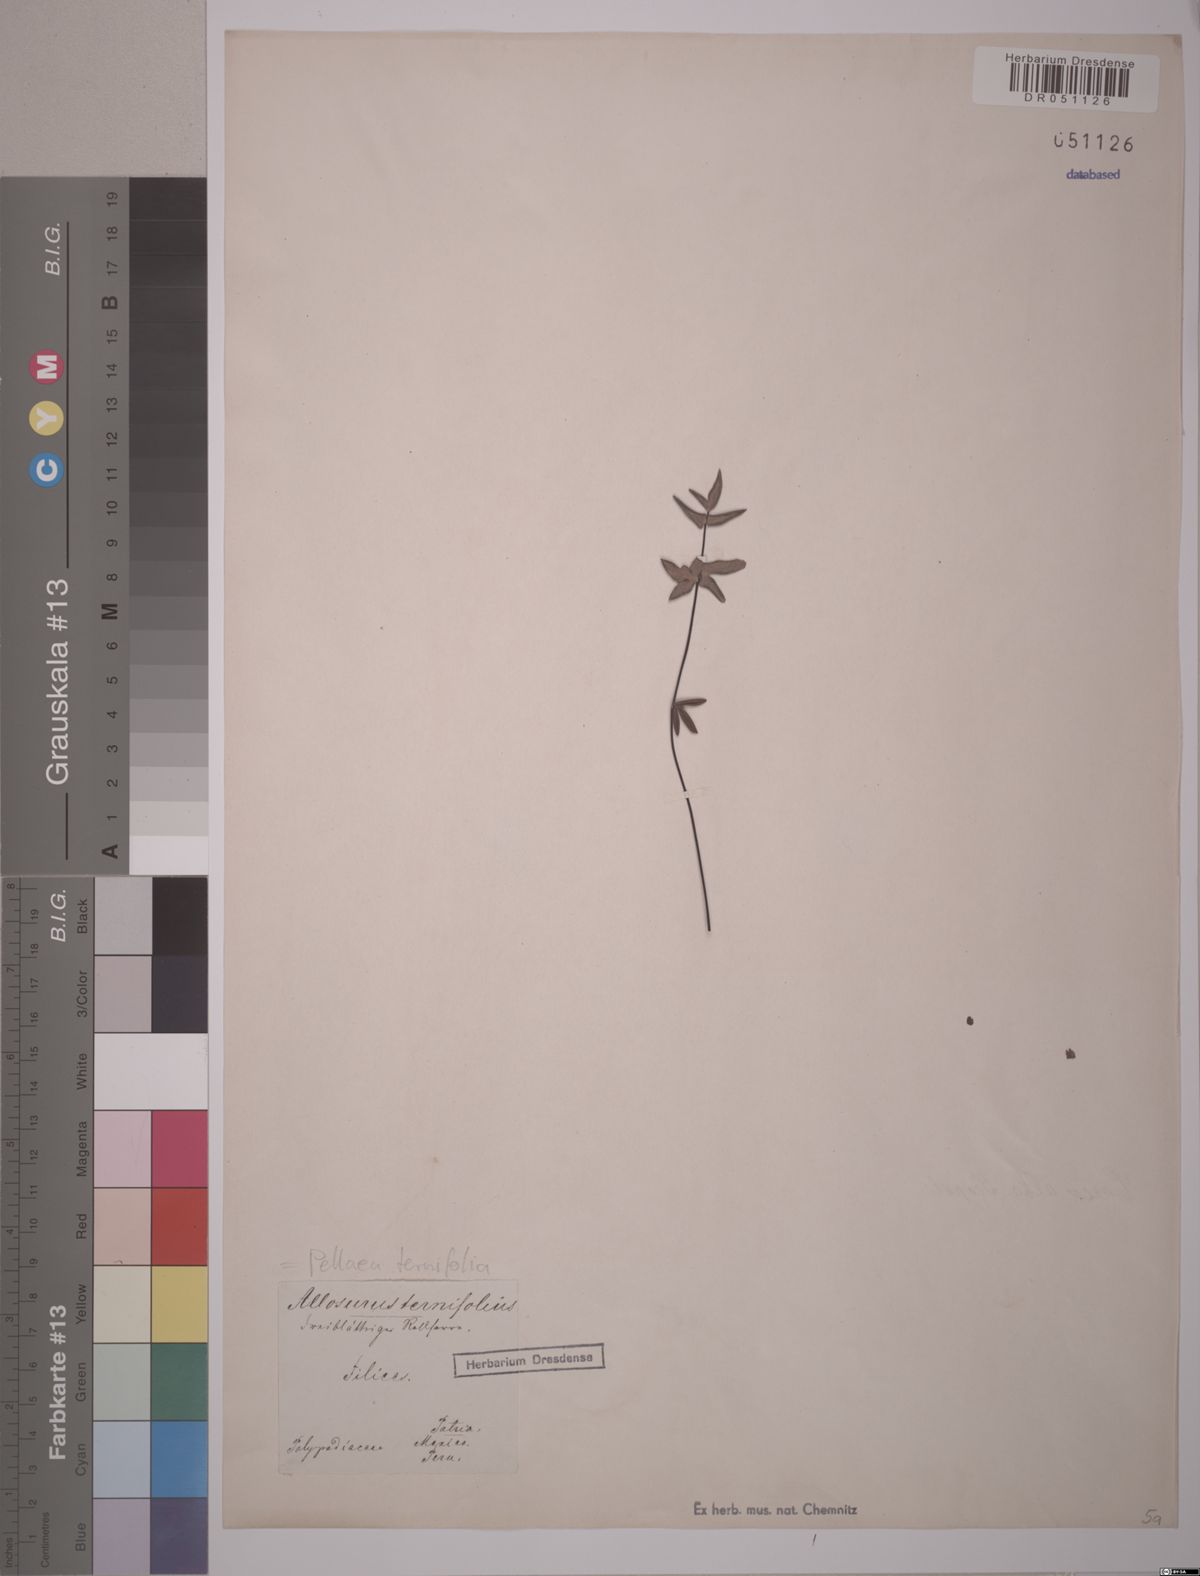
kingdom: Plantae
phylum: Tracheophyta
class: Polypodiopsida
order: Polypodiales
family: Pteridaceae
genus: Pellaea
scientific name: Pellaea ternifolia
